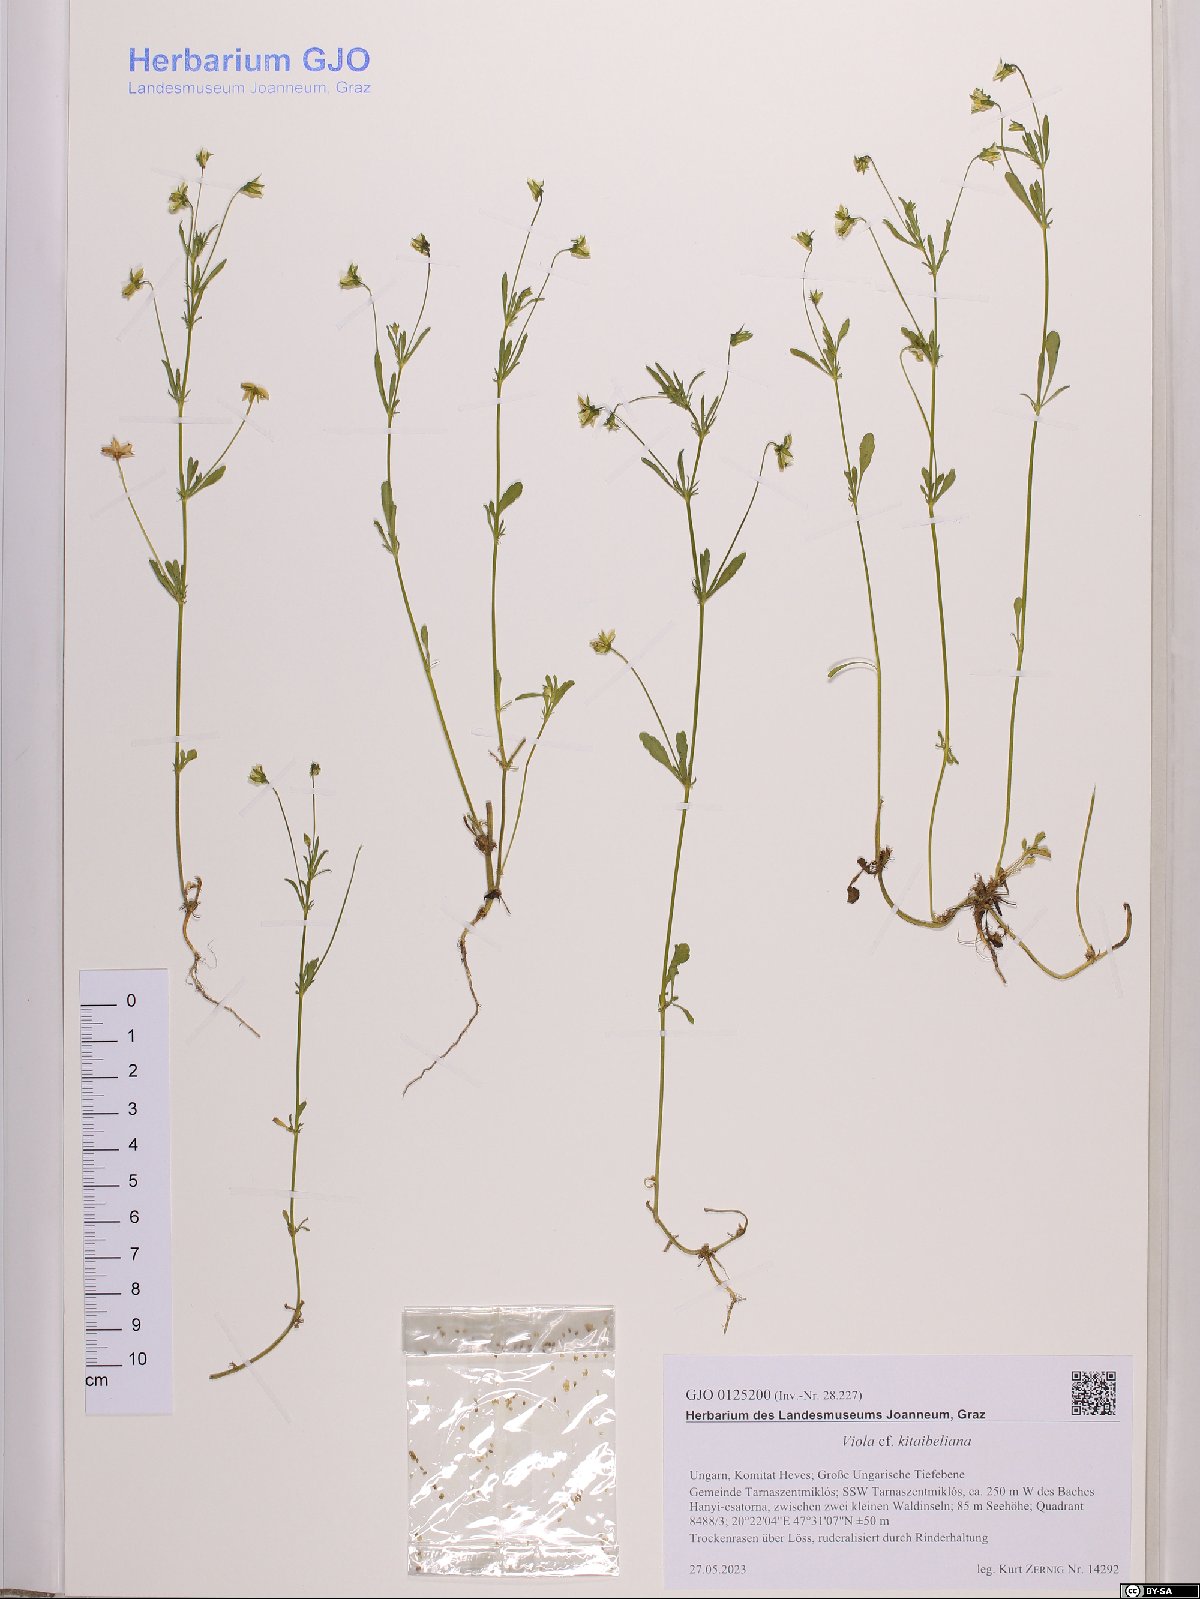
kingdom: Plantae
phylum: Tracheophyta
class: Magnoliopsida
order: Malpighiales
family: Violaceae
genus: Viola
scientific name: Viola kitaibeliana
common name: Dwarf pansy
